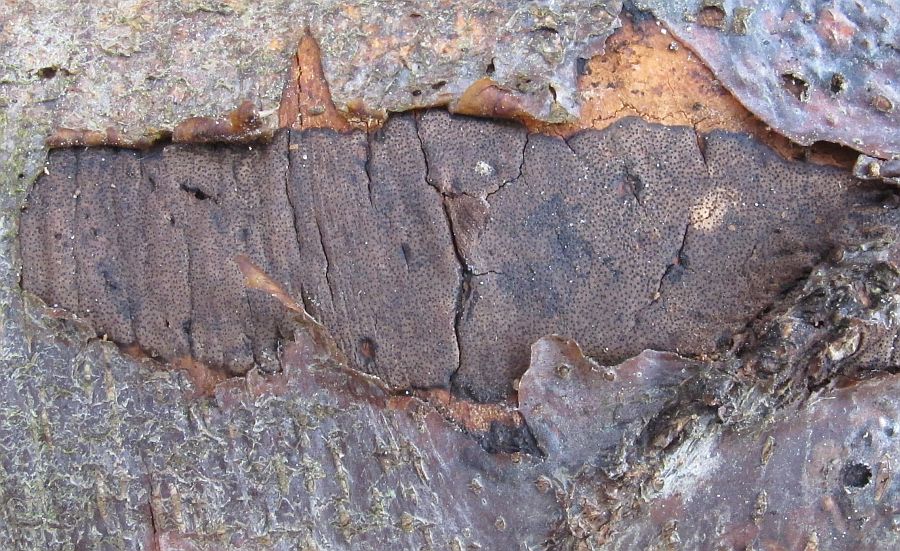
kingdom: Fungi
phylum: Ascomycota
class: Sordariomycetes
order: Xylariales
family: Diatrypaceae
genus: Diatrype
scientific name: Diatrype decorticata
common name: barksprænger-kulskorpe
